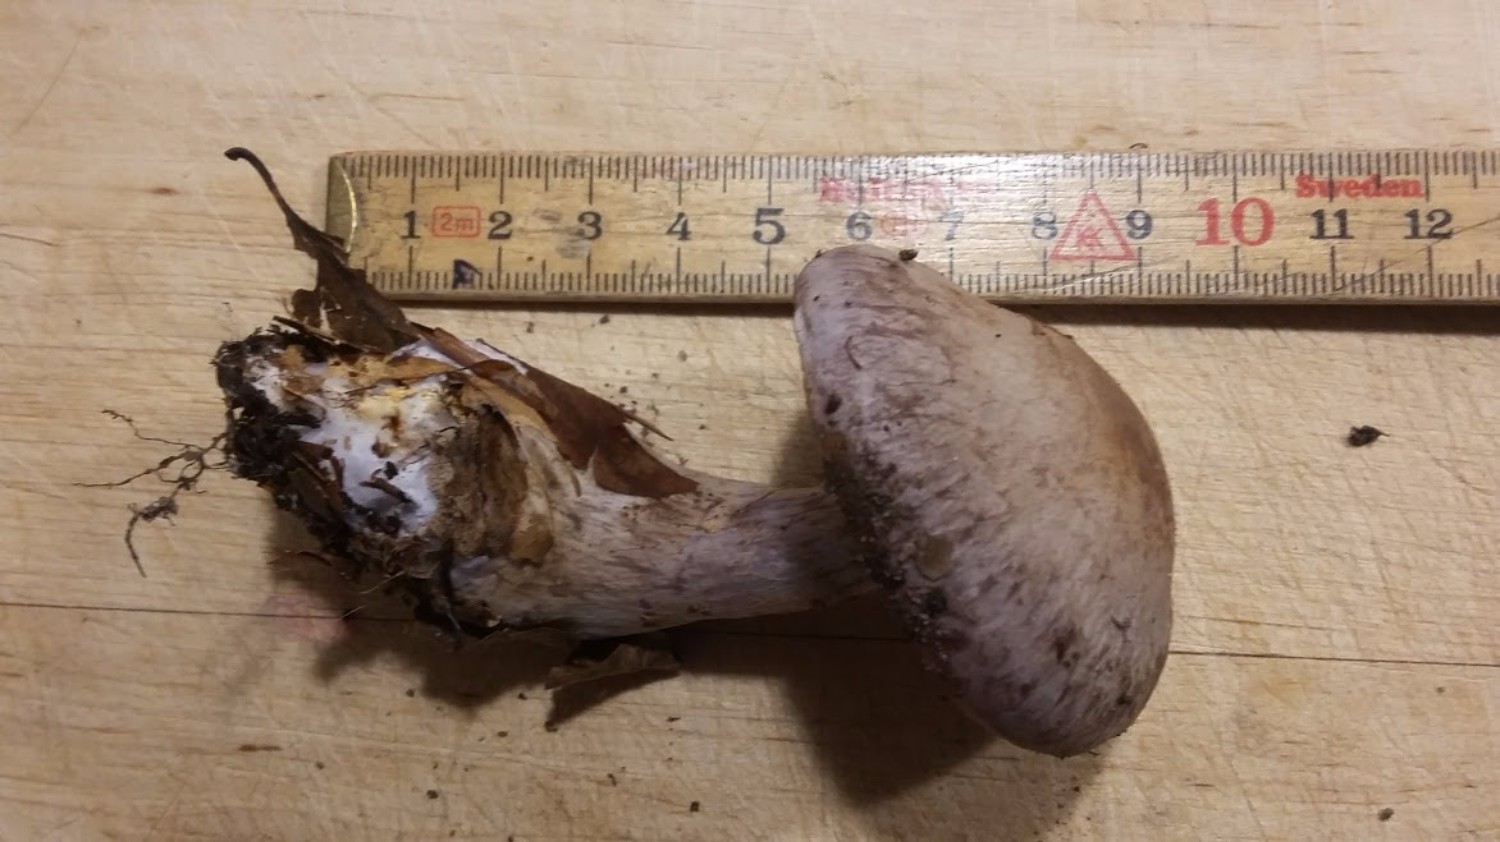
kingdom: Fungi
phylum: Basidiomycota
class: Agaricomycetes
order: Agaricales
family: Cortinariaceae
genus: Cortinarius
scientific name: Cortinarius
